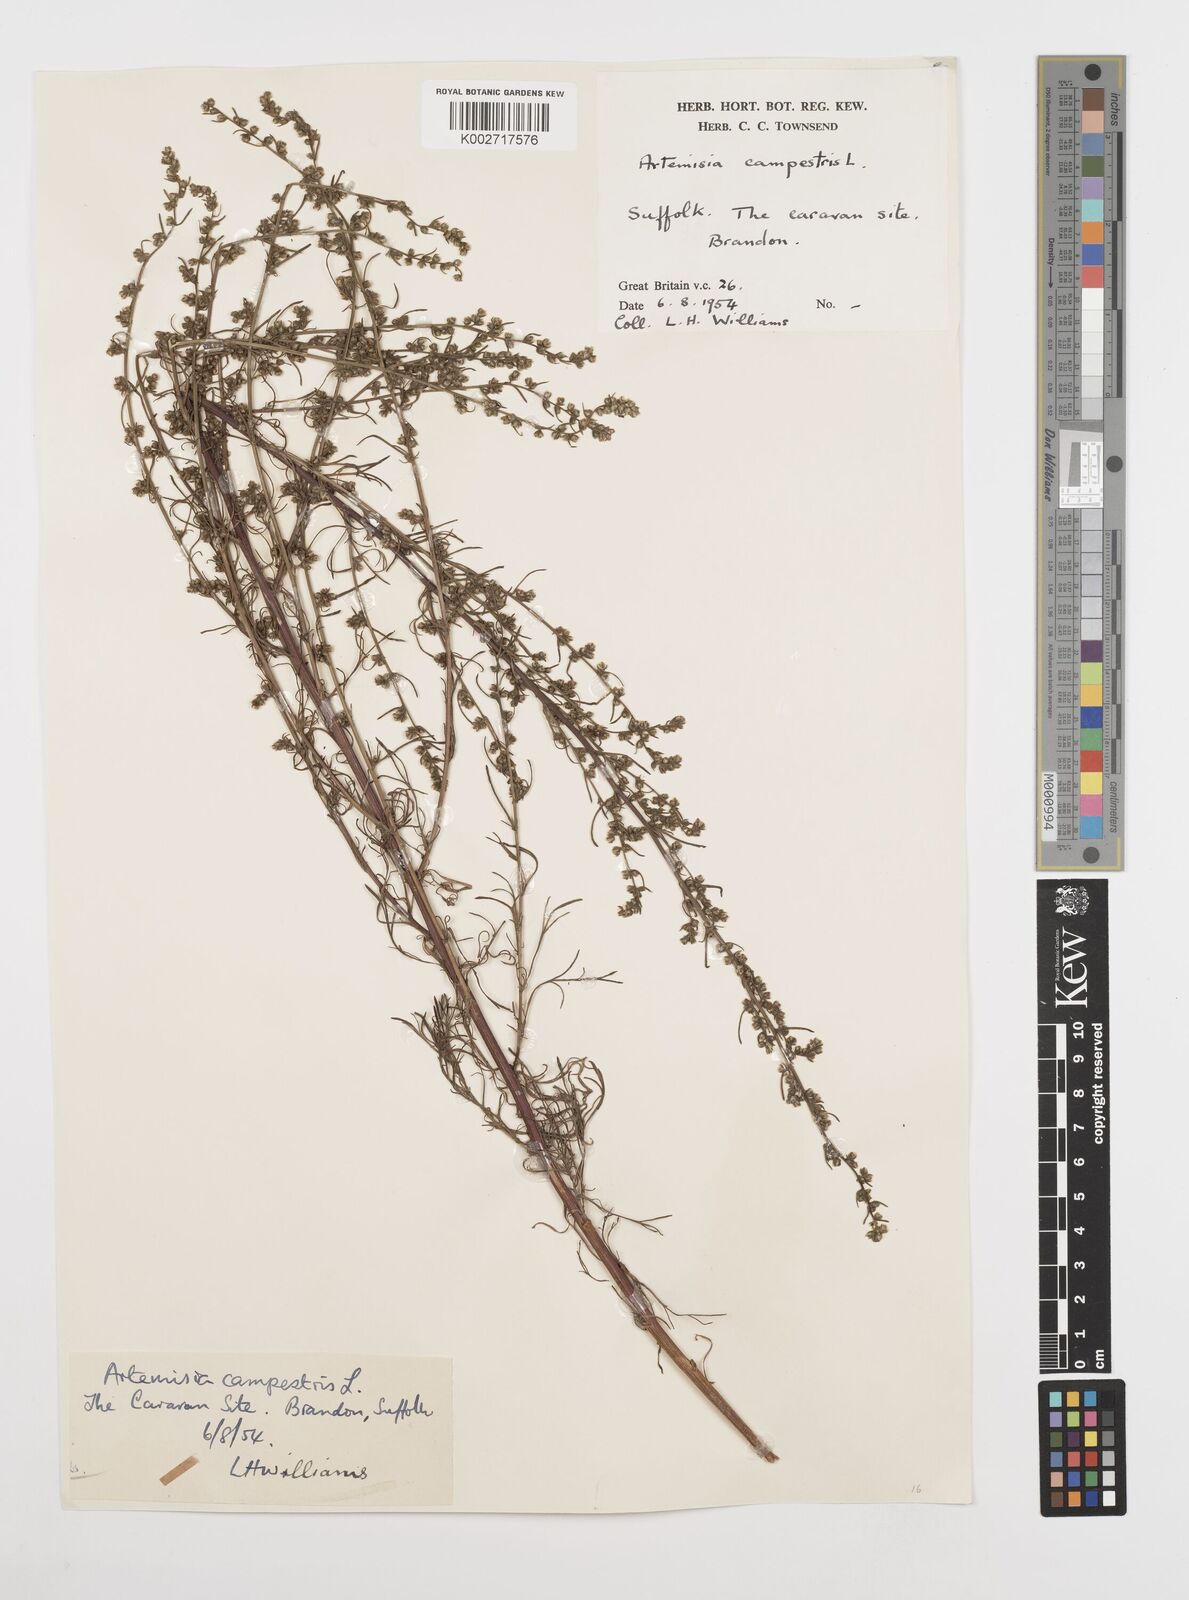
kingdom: Plantae
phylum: Tracheophyta
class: Magnoliopsida
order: Asterales
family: Asteraceae
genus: Artemisia
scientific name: Artemisia campestris
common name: Field wormwood
